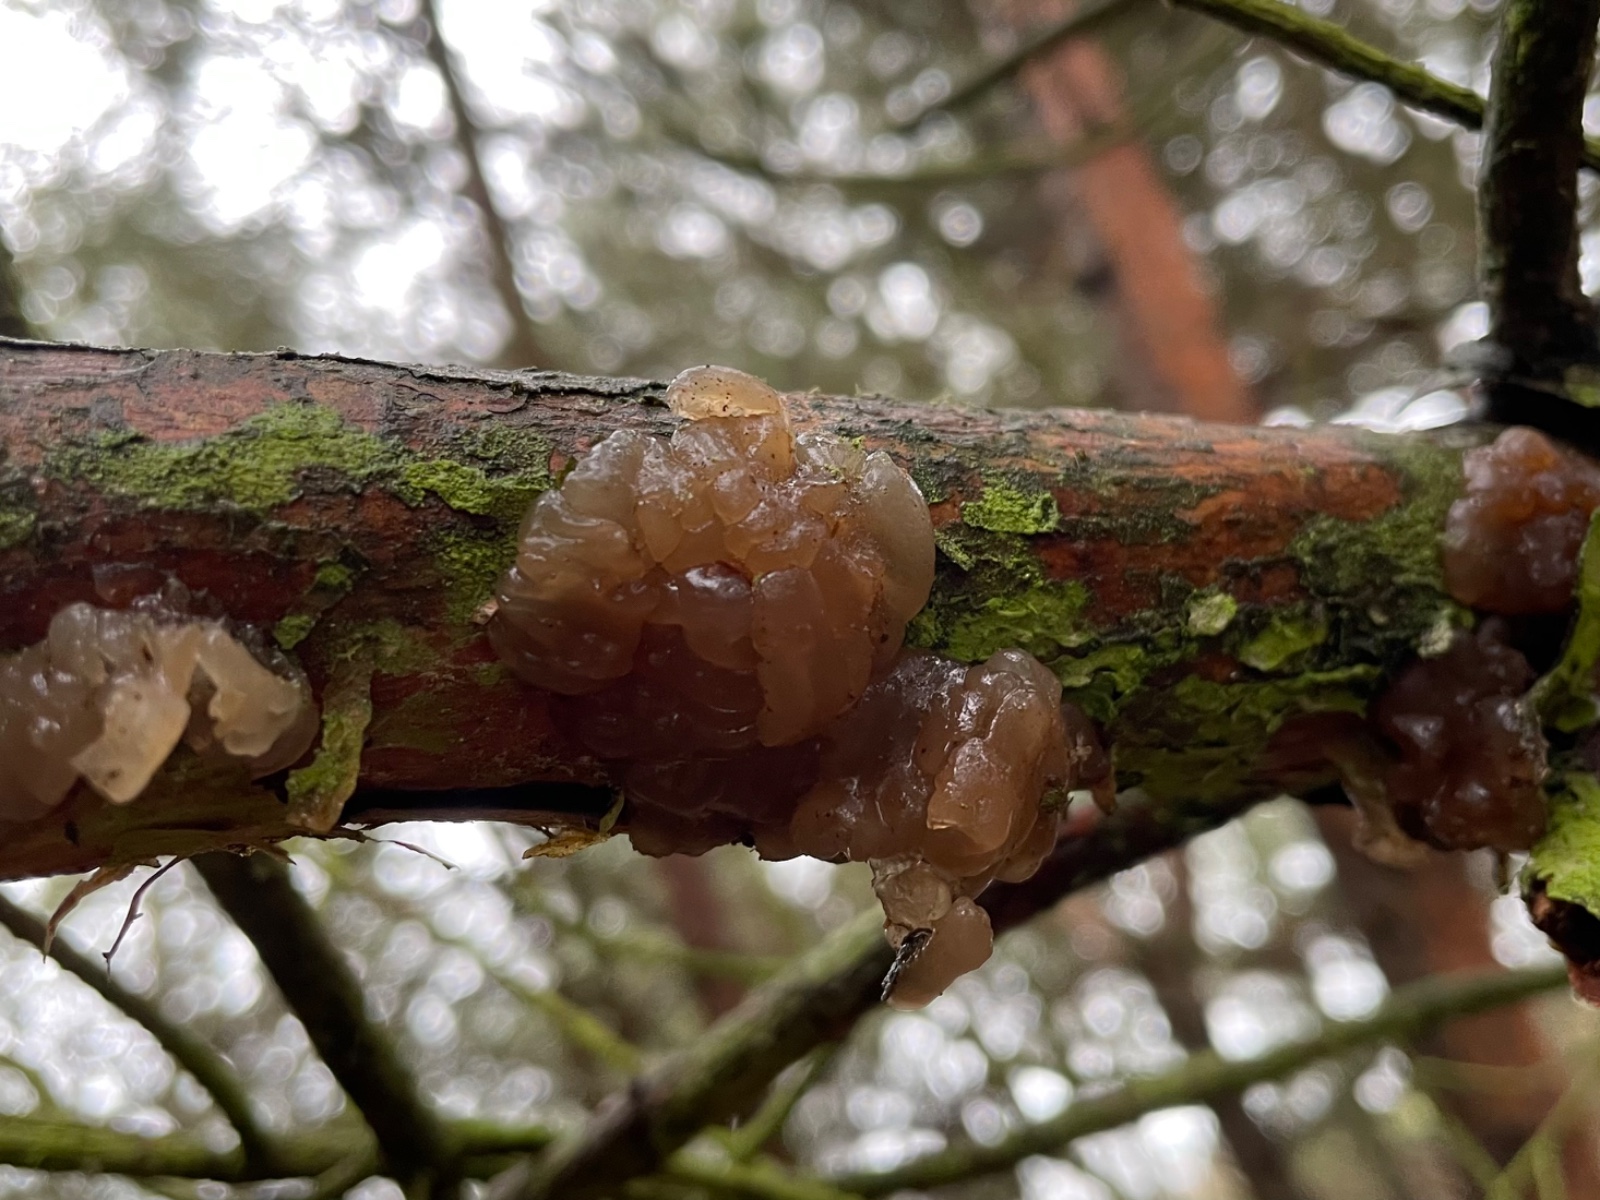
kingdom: Fungi
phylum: Basidiomycota
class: Agaricomycetes
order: Auriculariales
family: Auriculariaceae
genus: Exidia
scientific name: Exidia saccharina
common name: kandis-bævretop
